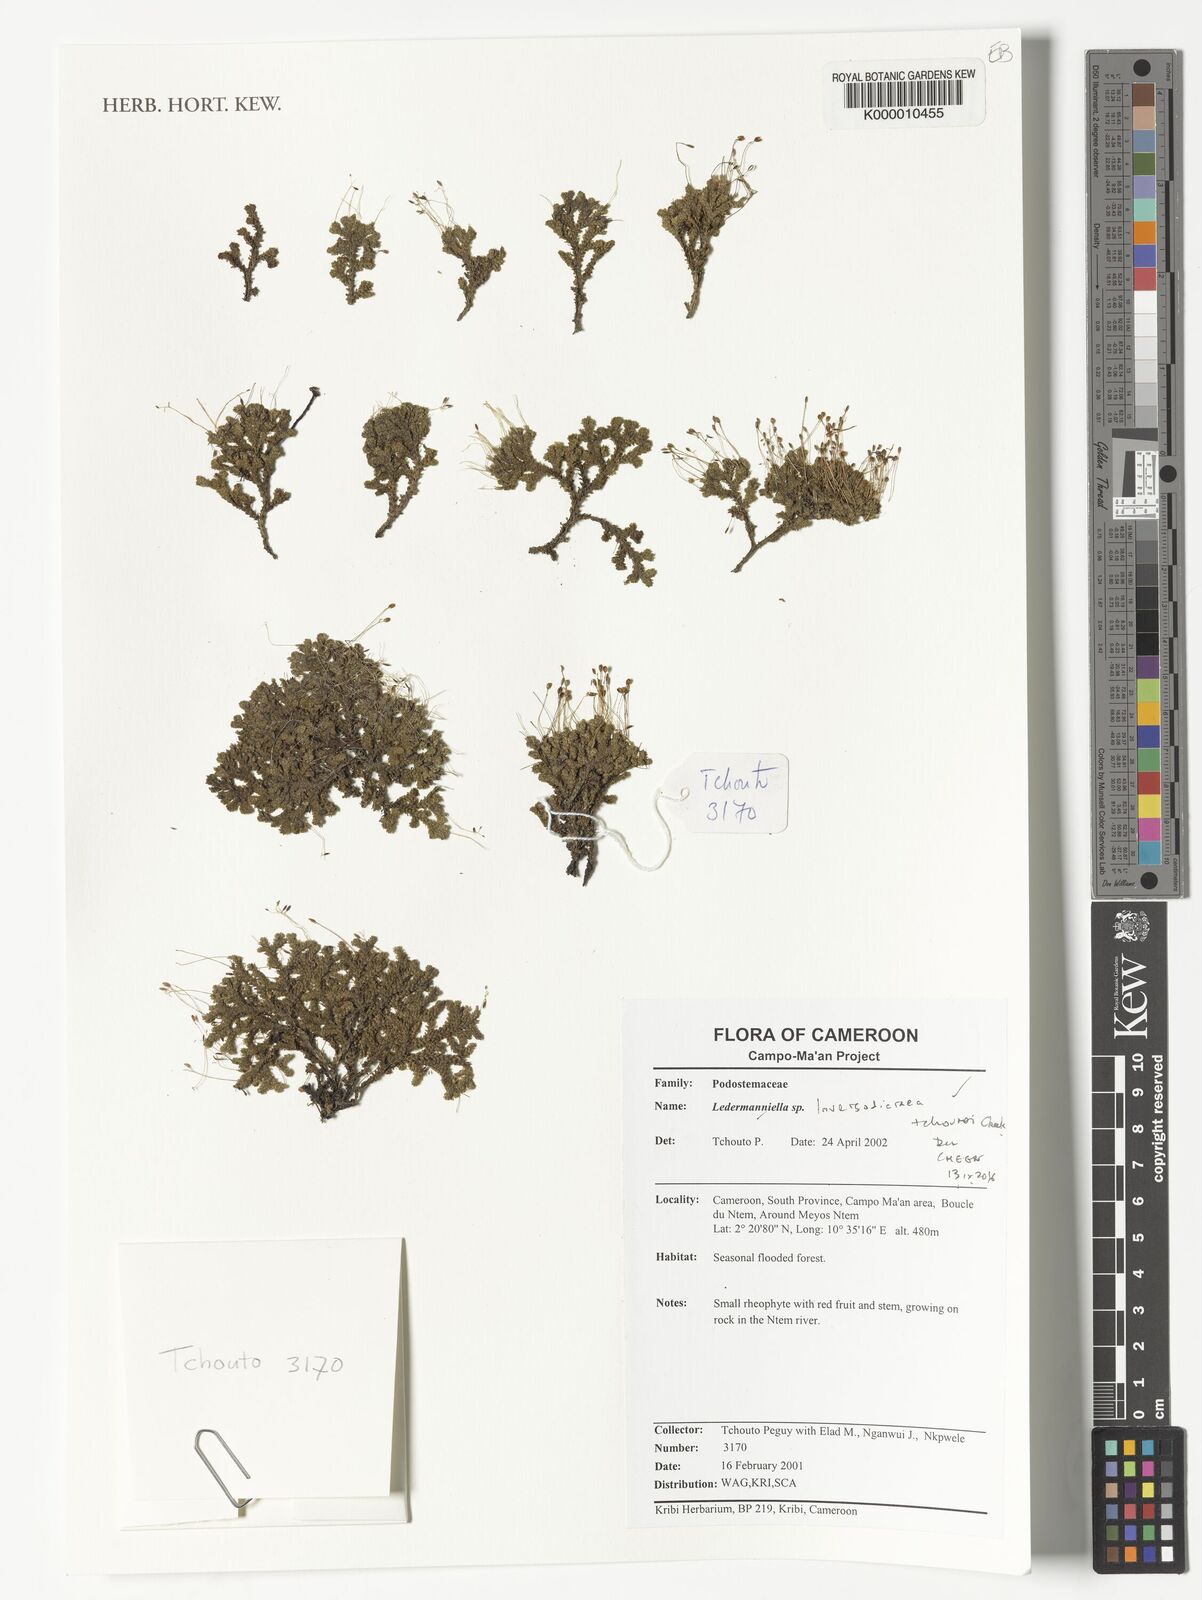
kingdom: Plantae
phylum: Tracheophyta
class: Magnoliopsida
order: Malpighiales
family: Podostemaceae
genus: Inversodicraea
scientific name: Inversodicraea tchoutoi
